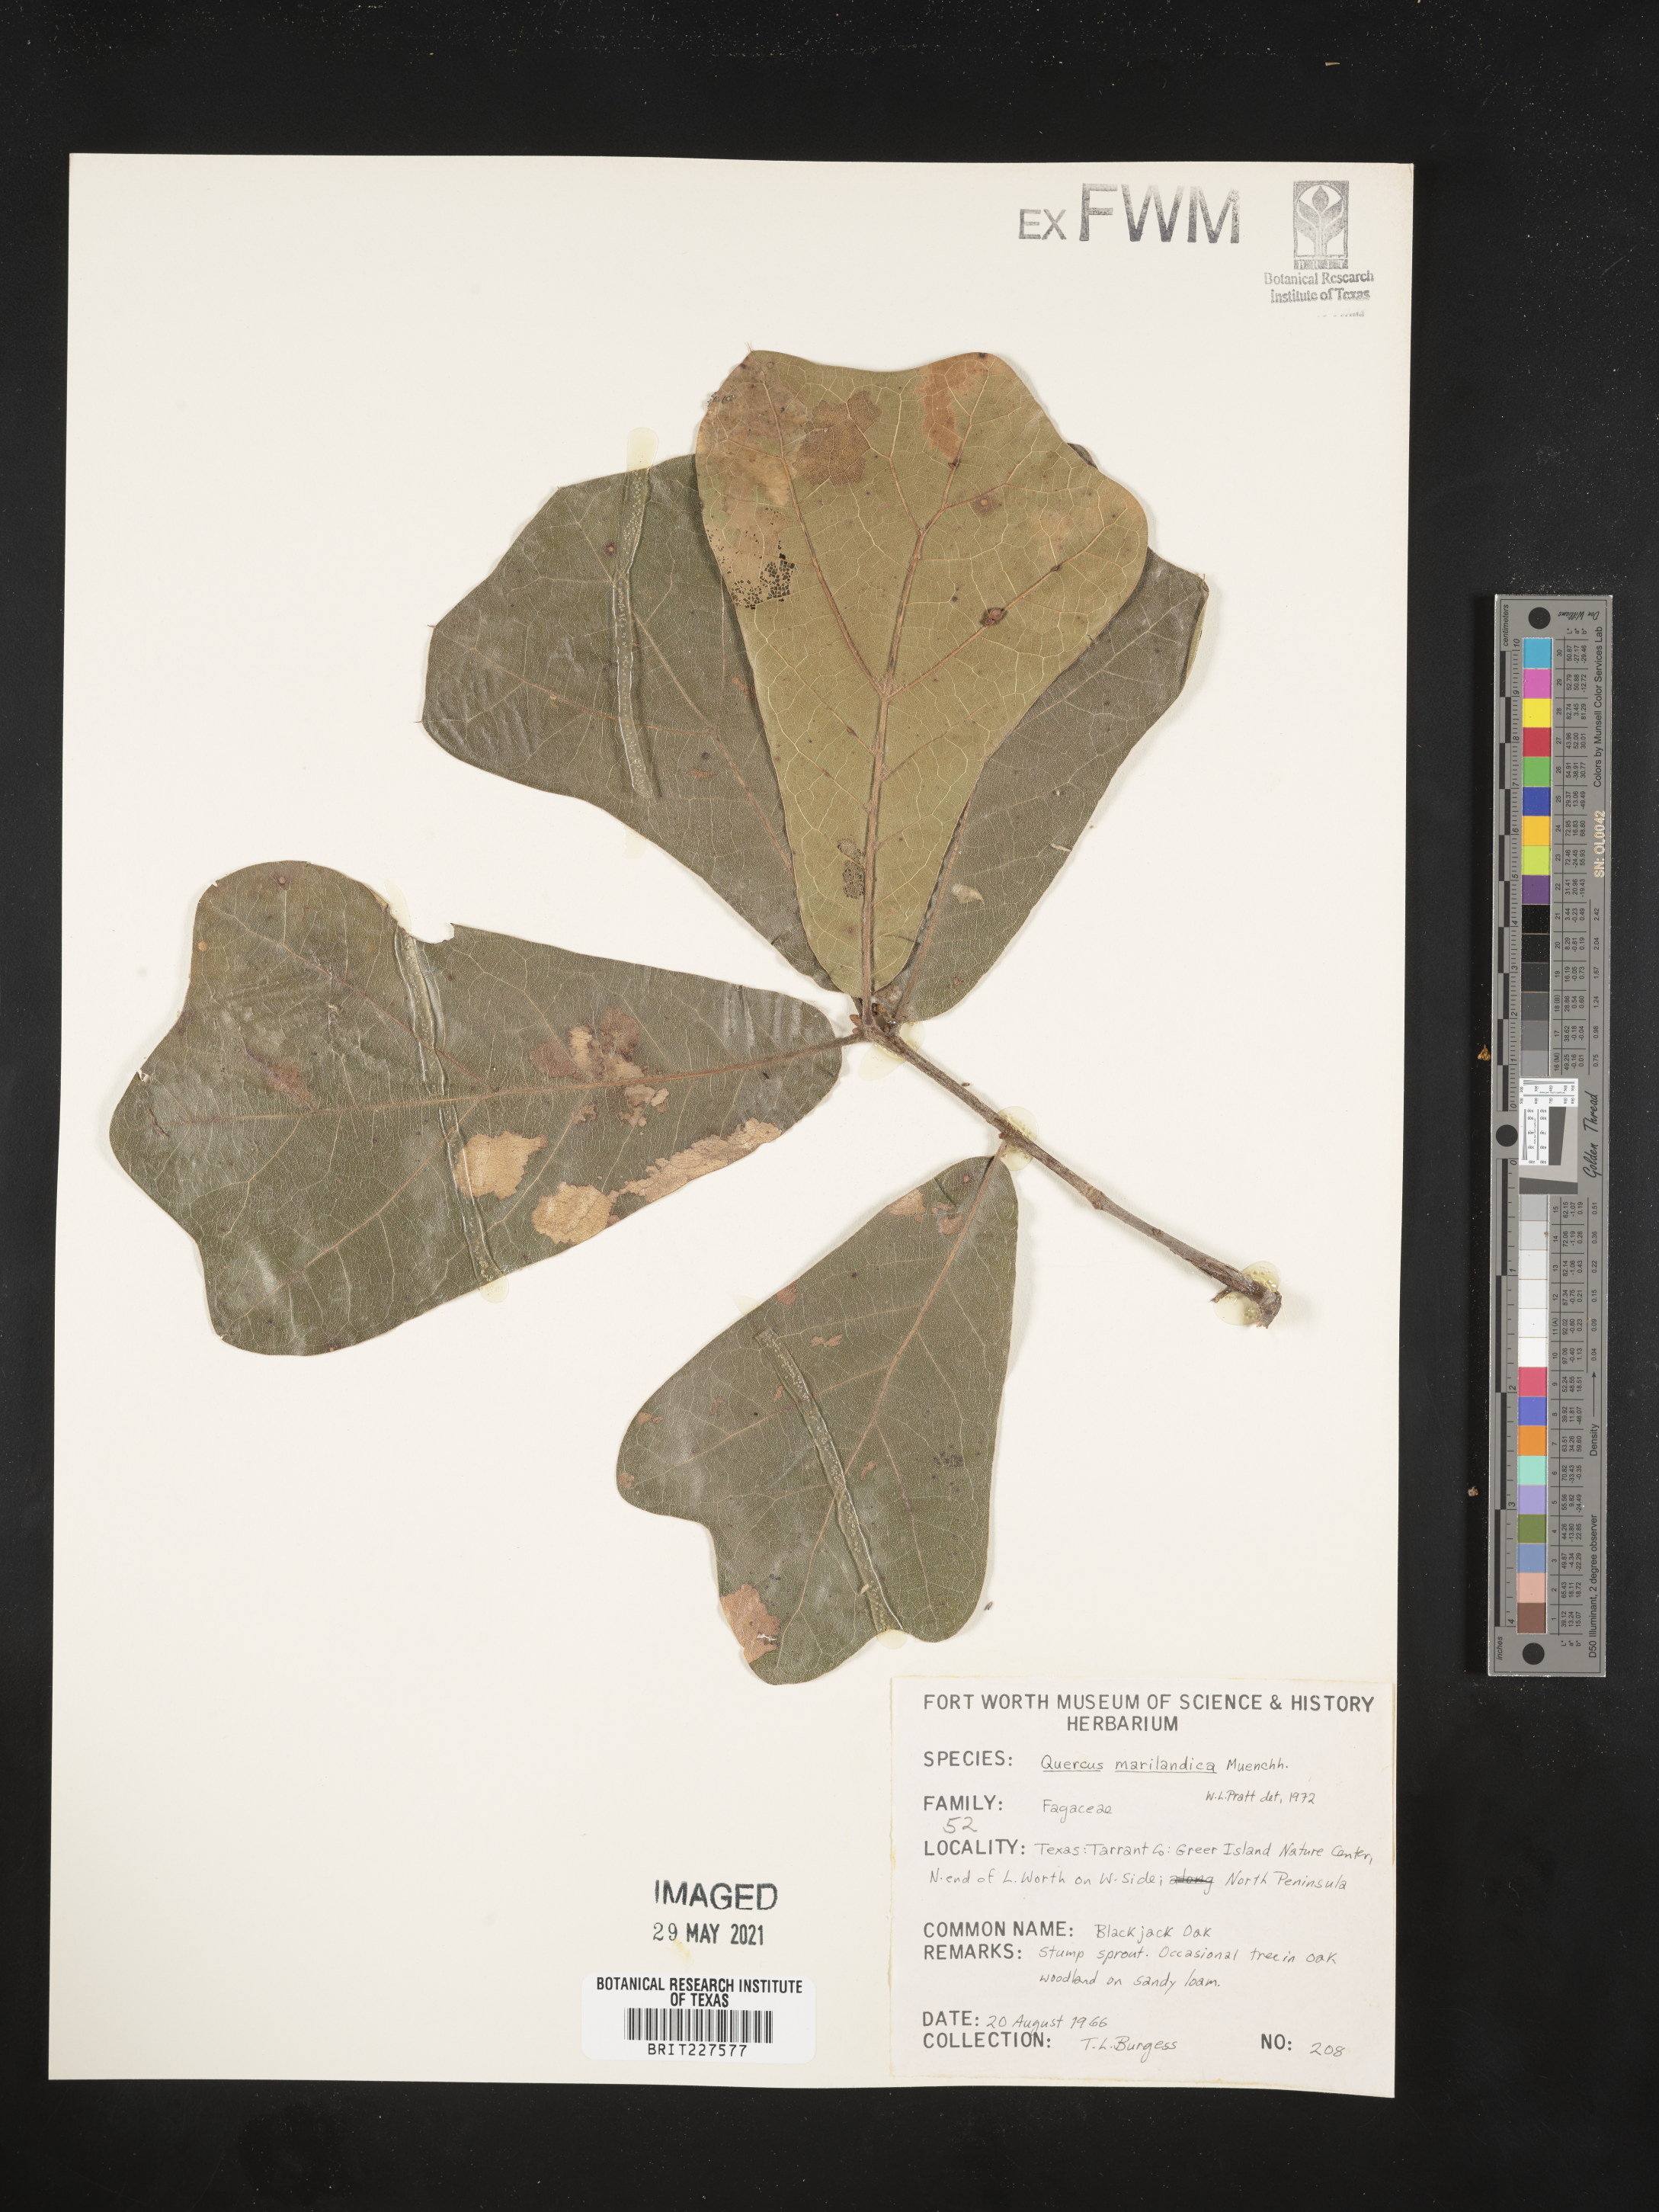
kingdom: Plantae
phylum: Tracheophyta
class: Magnoliopsida
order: Fagales
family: Fagaceae
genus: Quercus
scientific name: Quercus marilandica
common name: Blackjack oak
